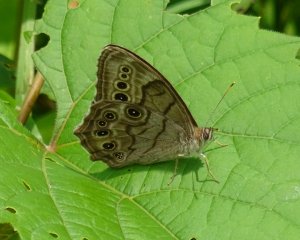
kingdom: Animalia
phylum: Arthropoda
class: Insecta
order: Lepidoptera
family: Nymphalidae
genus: Lethe
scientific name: Lethe anthedon
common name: Northern Pearly-Eye
